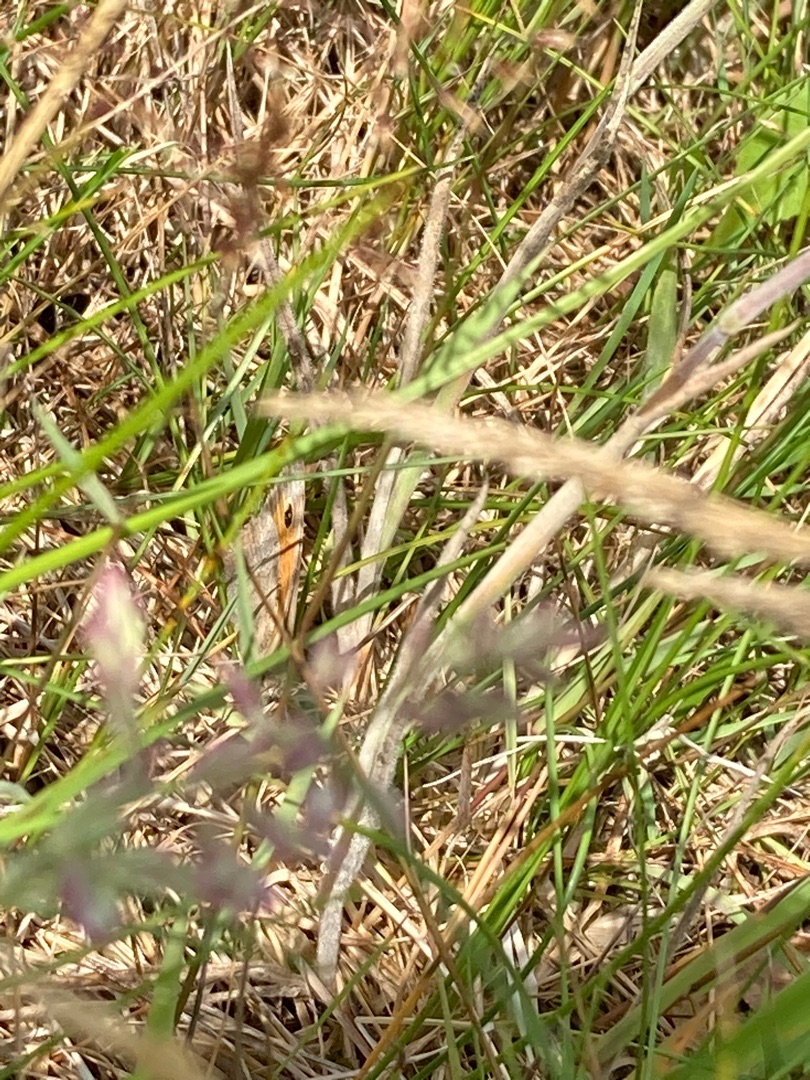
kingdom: Animalia
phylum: Arthropoda
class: Insecta
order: Lepidoptera
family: Nymphalidae
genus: Maniola
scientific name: Maniola jurtina
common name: Græsrandøje
